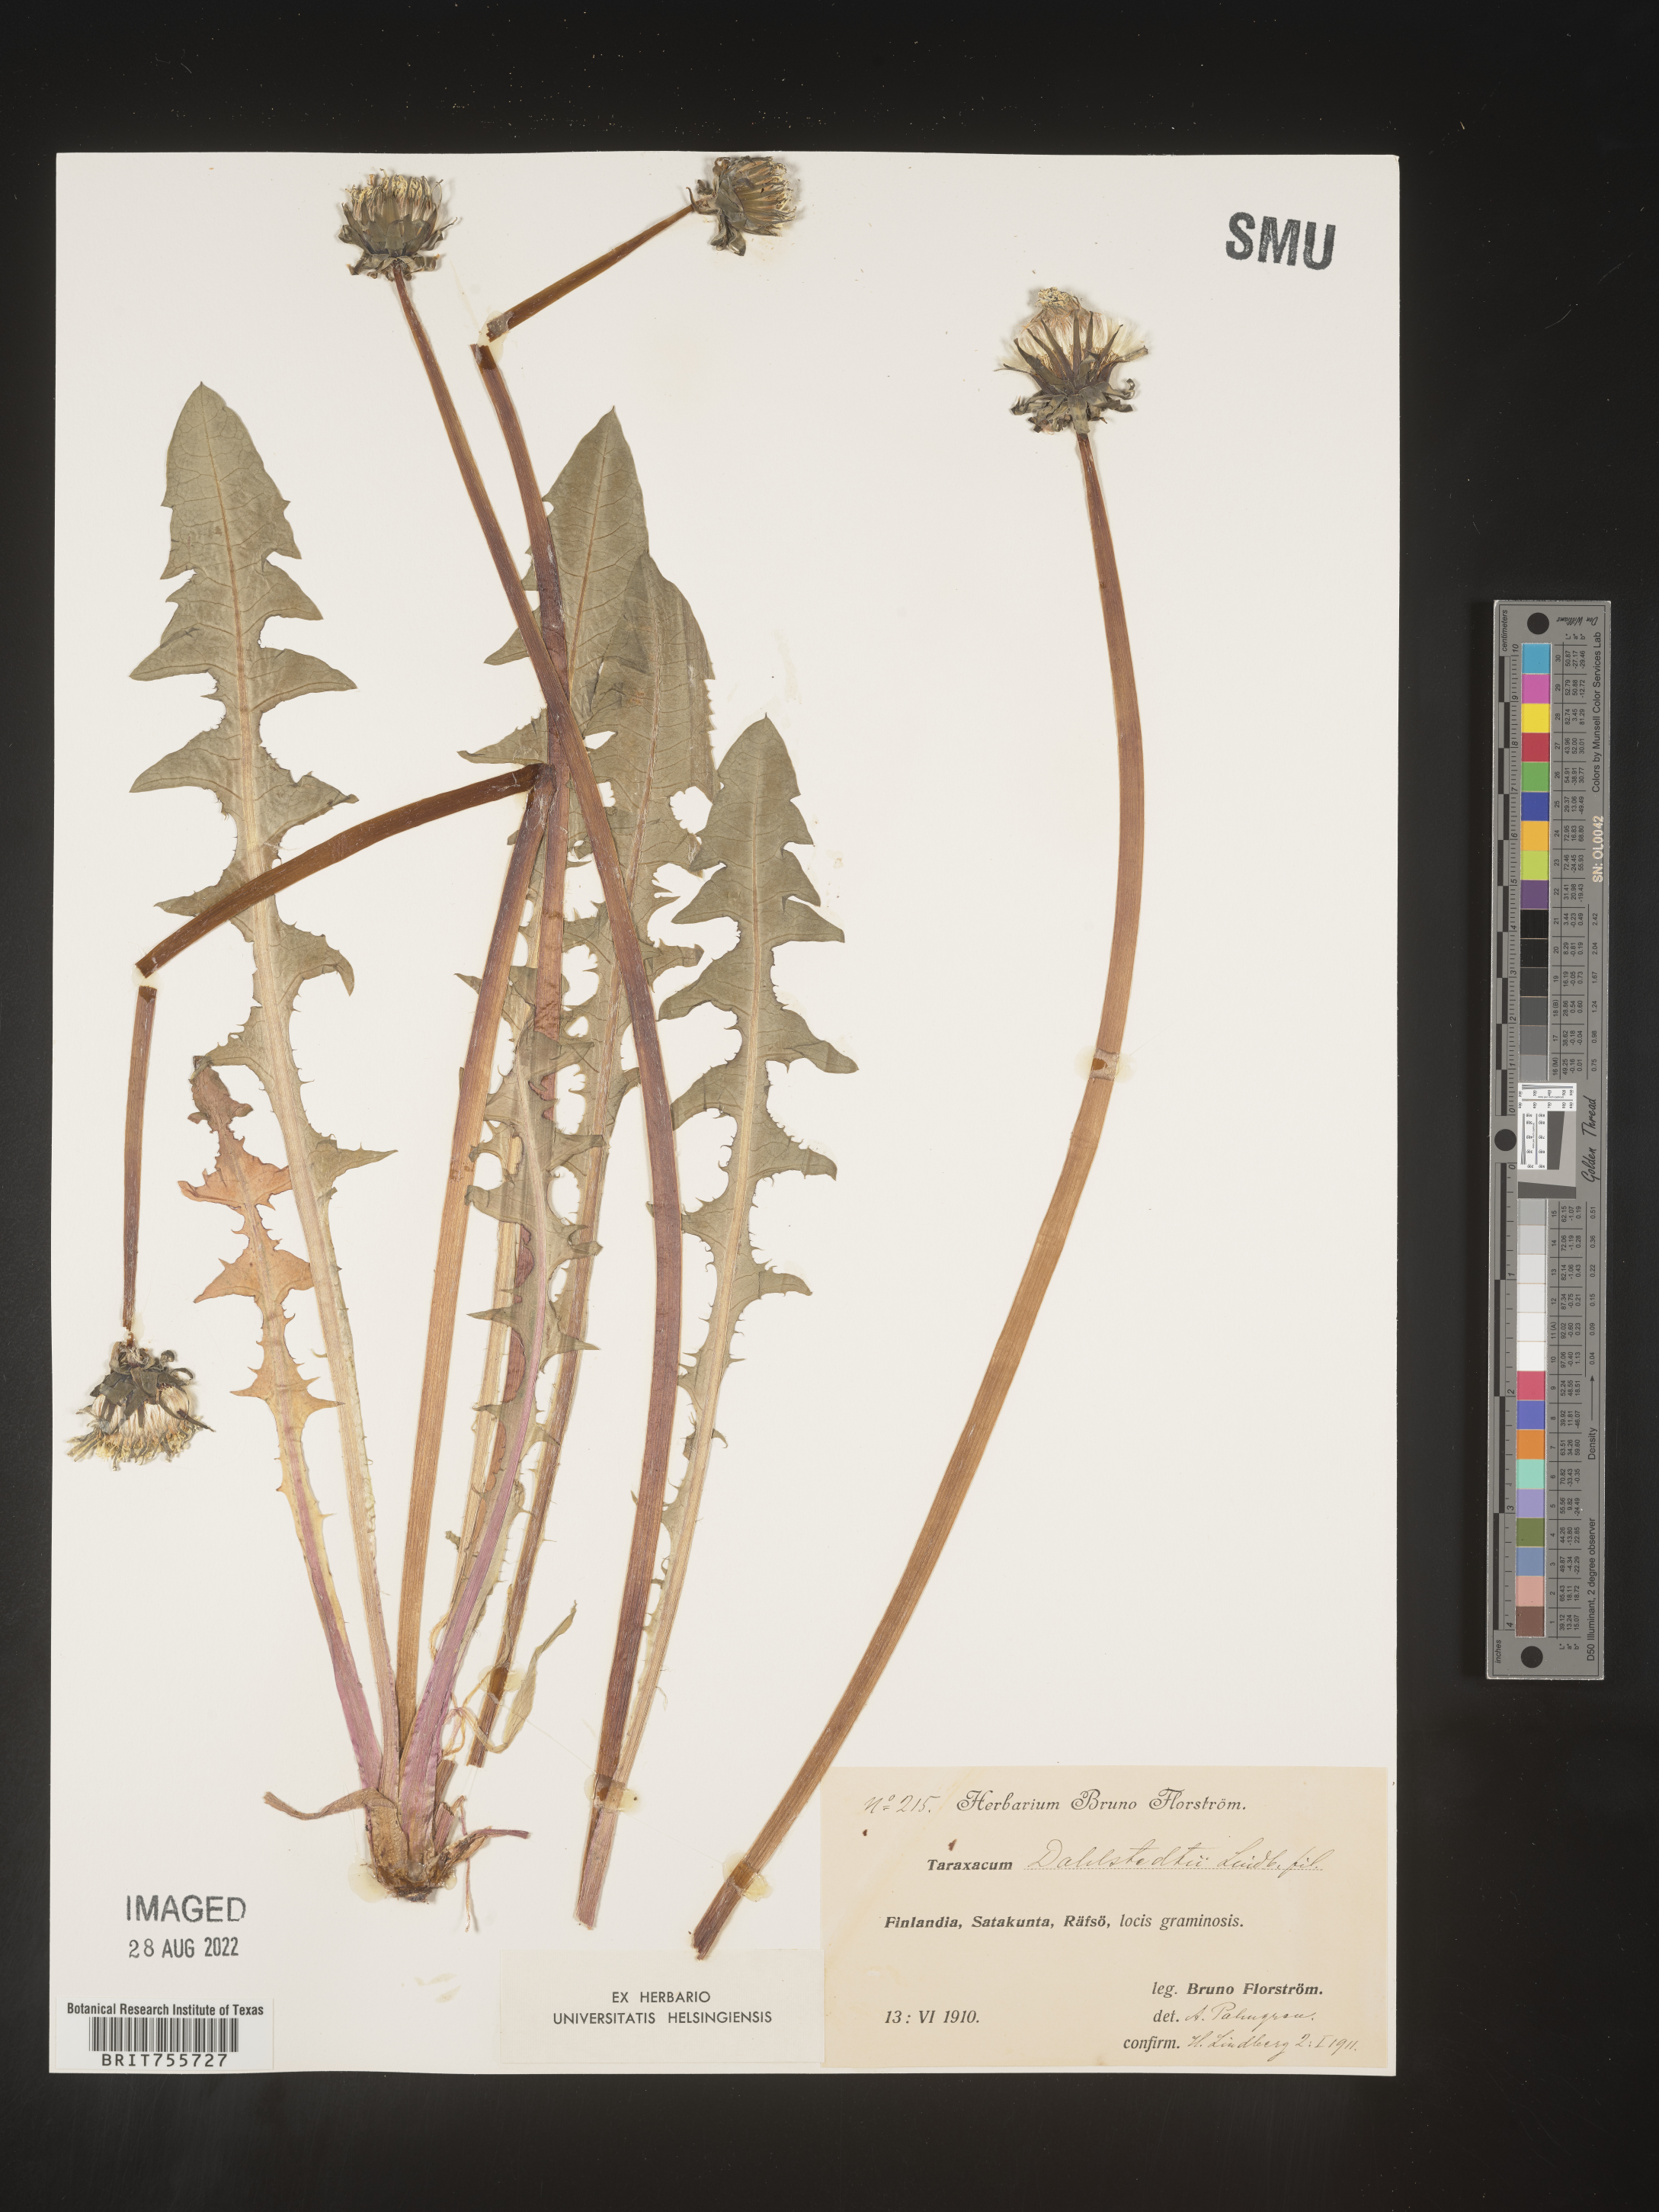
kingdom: Plantae
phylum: Tracheophyta
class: Magnoliopsida
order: Asterales
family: Asteraceae
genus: Taraxacum
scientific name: Taraxacum
